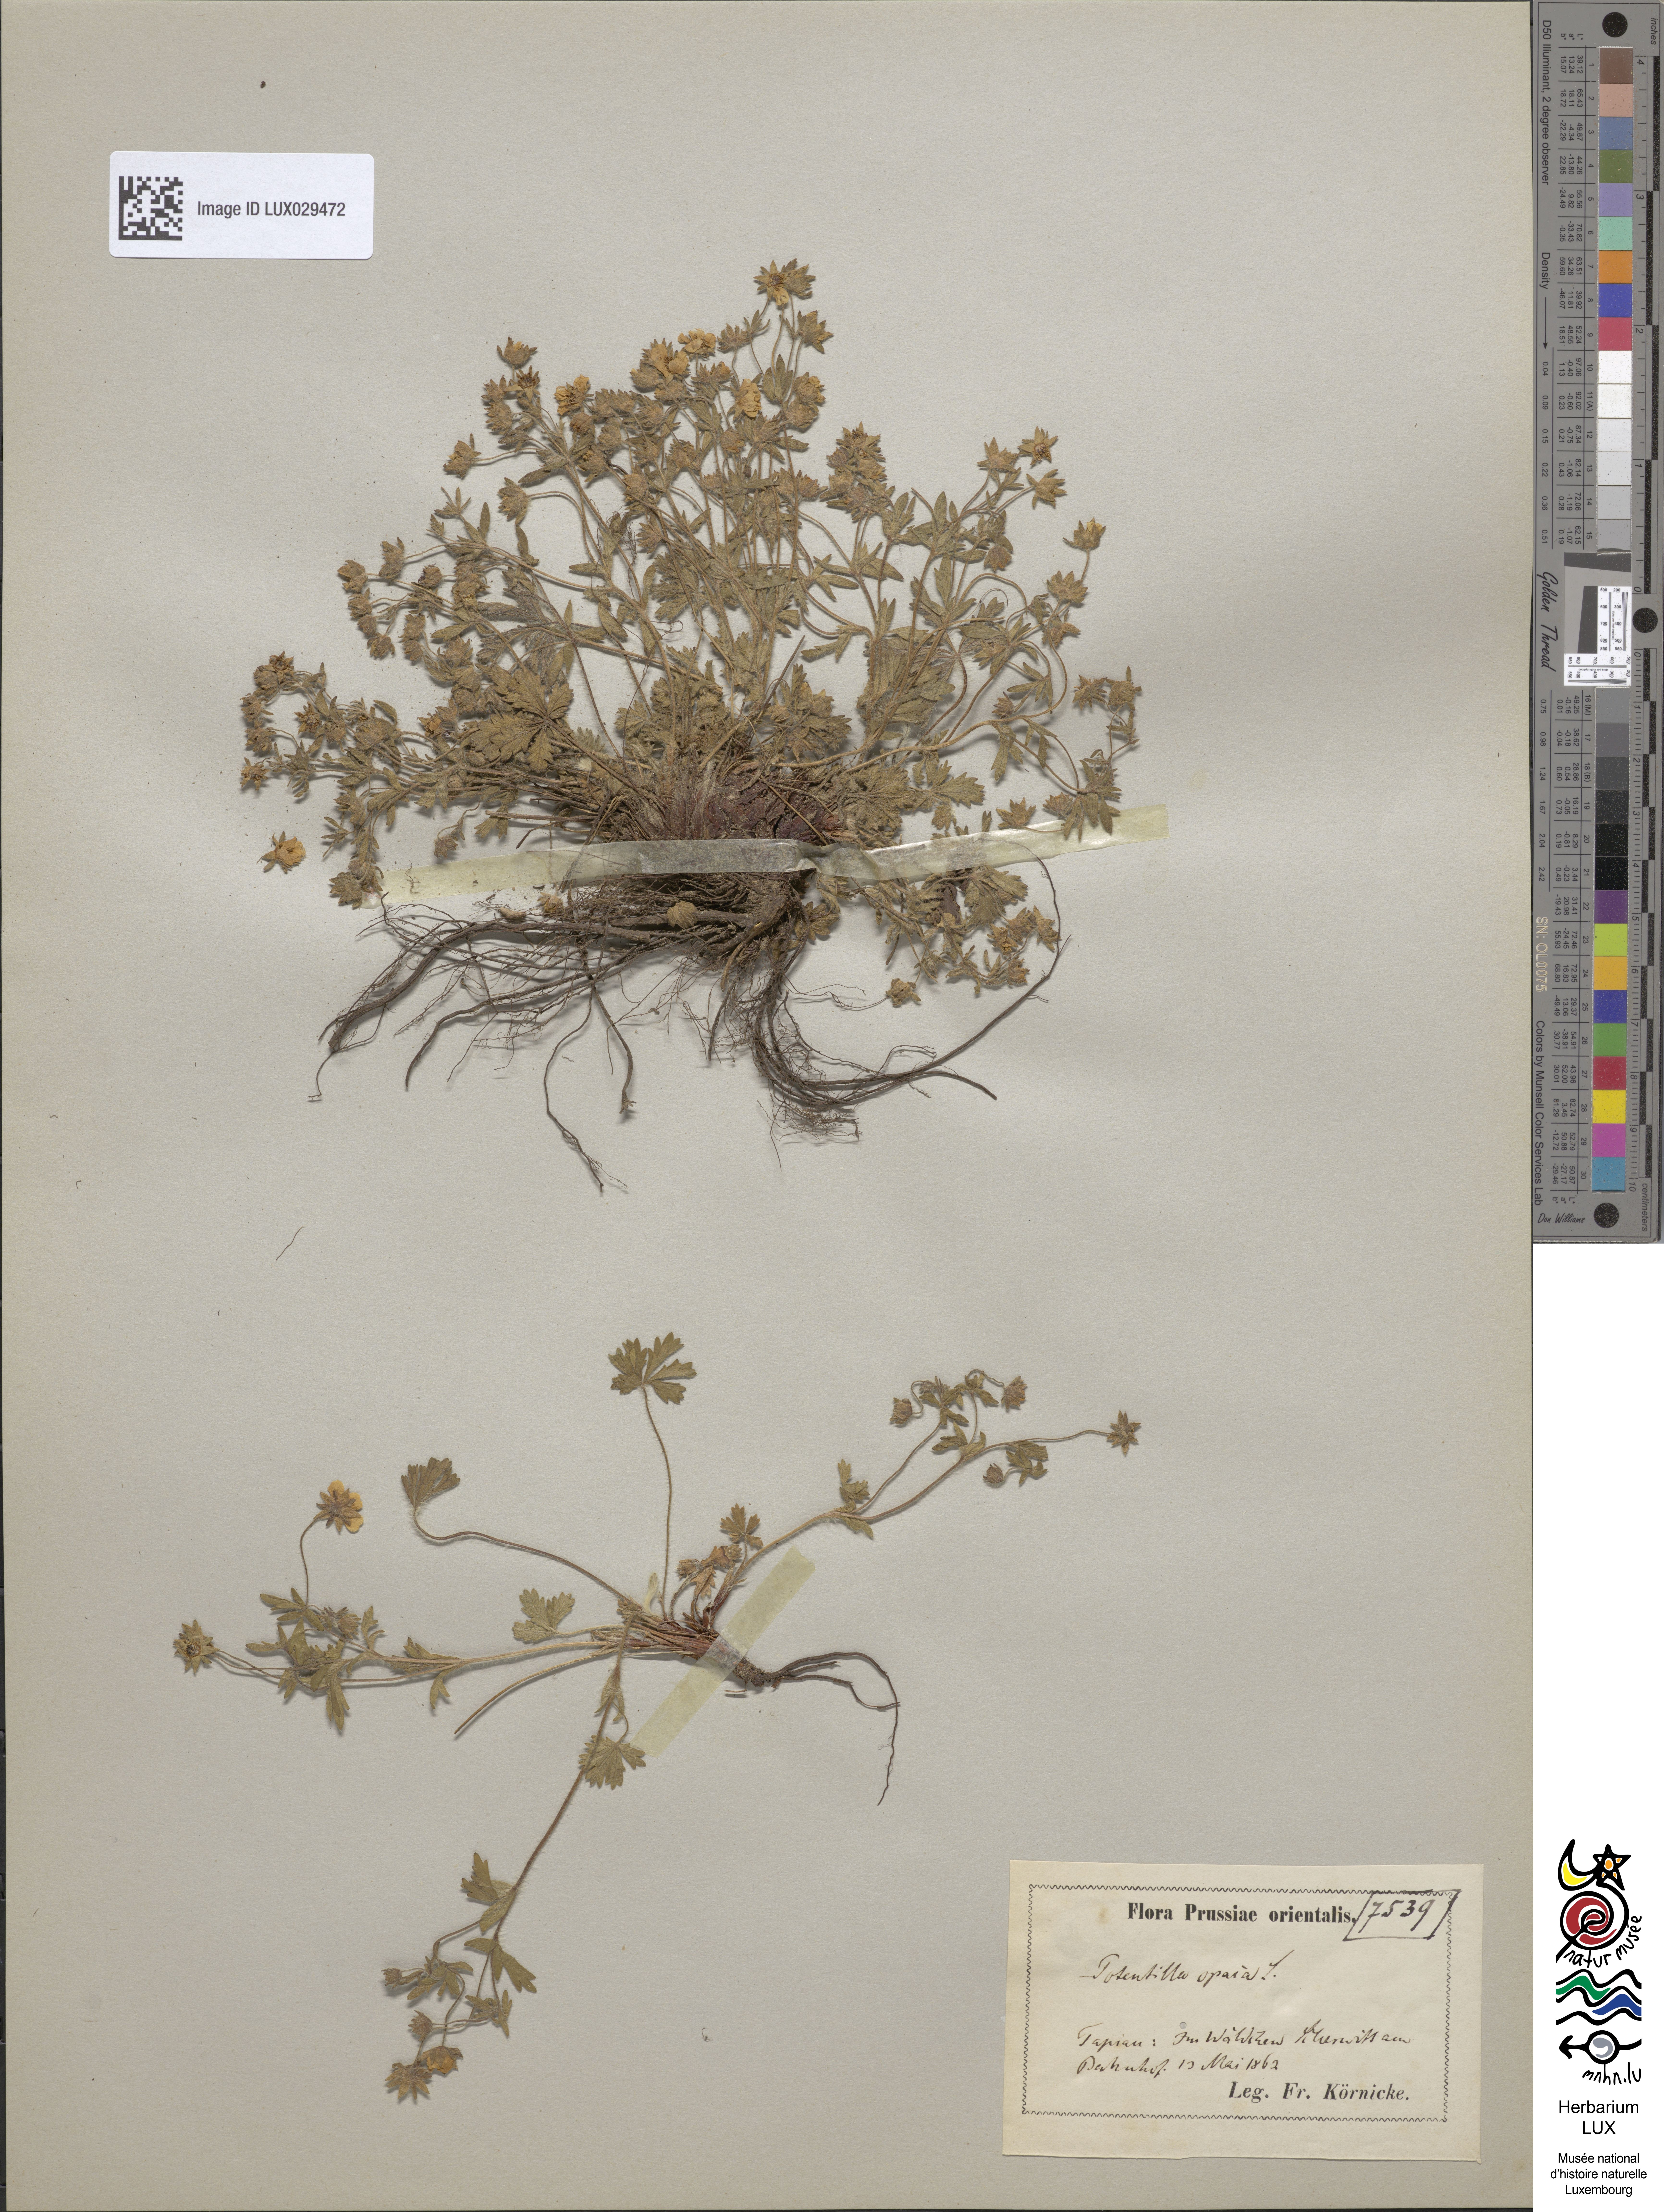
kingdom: Plantae
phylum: Tracheophyta
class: Magnoliopsida
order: Rosales
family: Rosaceae
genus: Potentilla
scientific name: Potentilla heptaphylla
